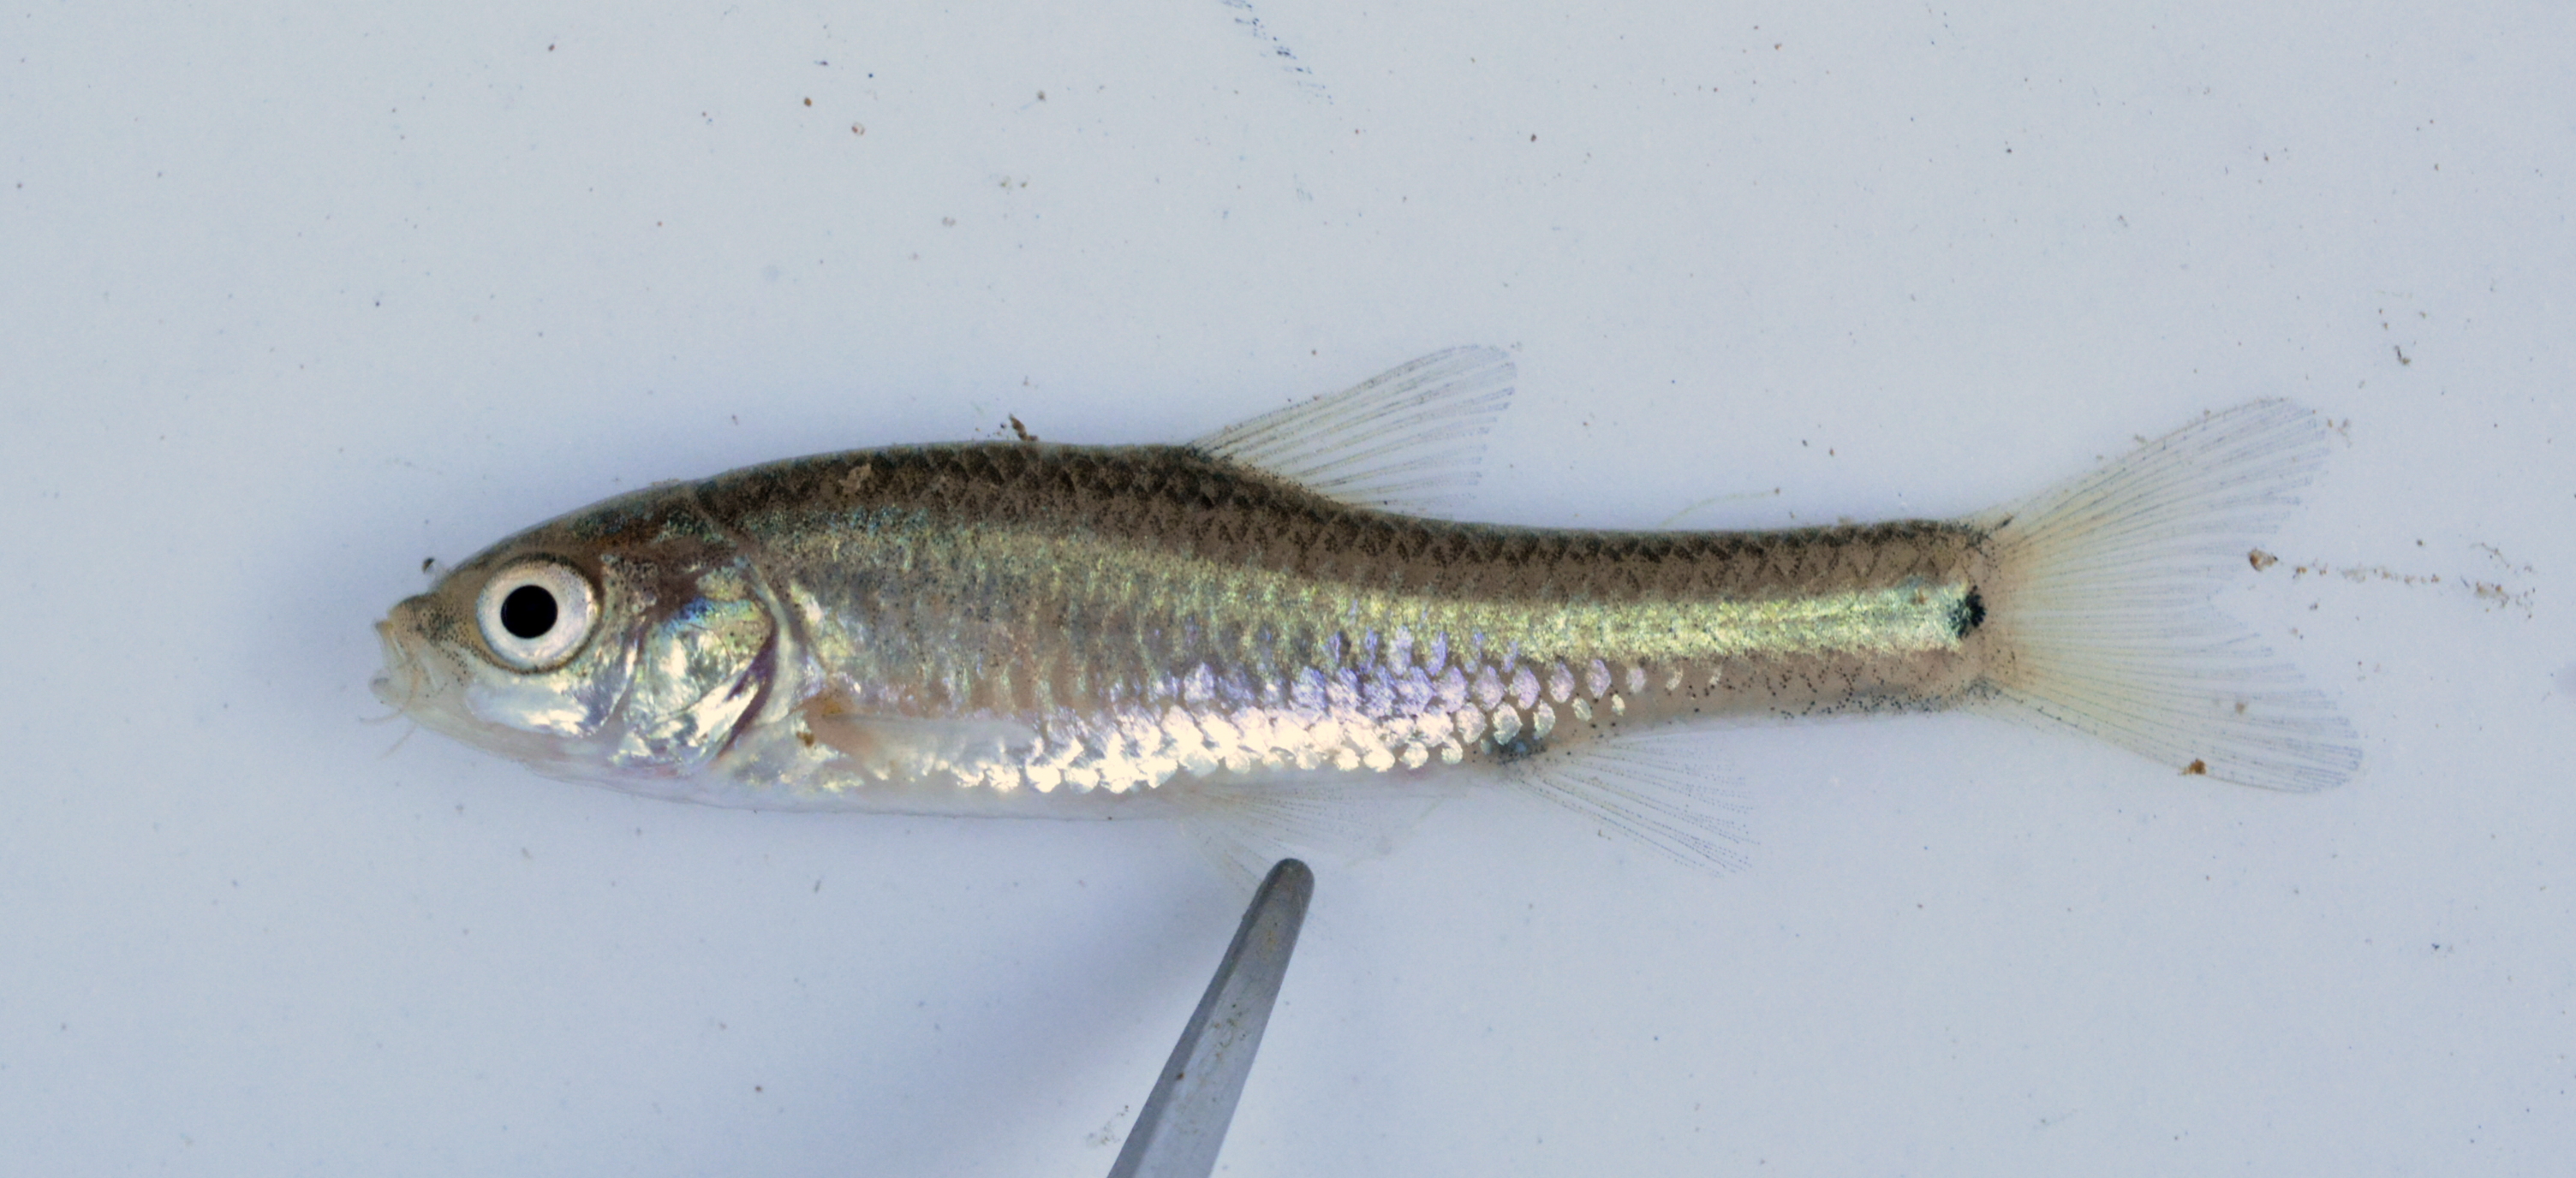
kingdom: Animalia
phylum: Chordata
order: Cypriniformes
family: Cyprinidae
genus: Enteromius
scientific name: Enteromius mocoensis
